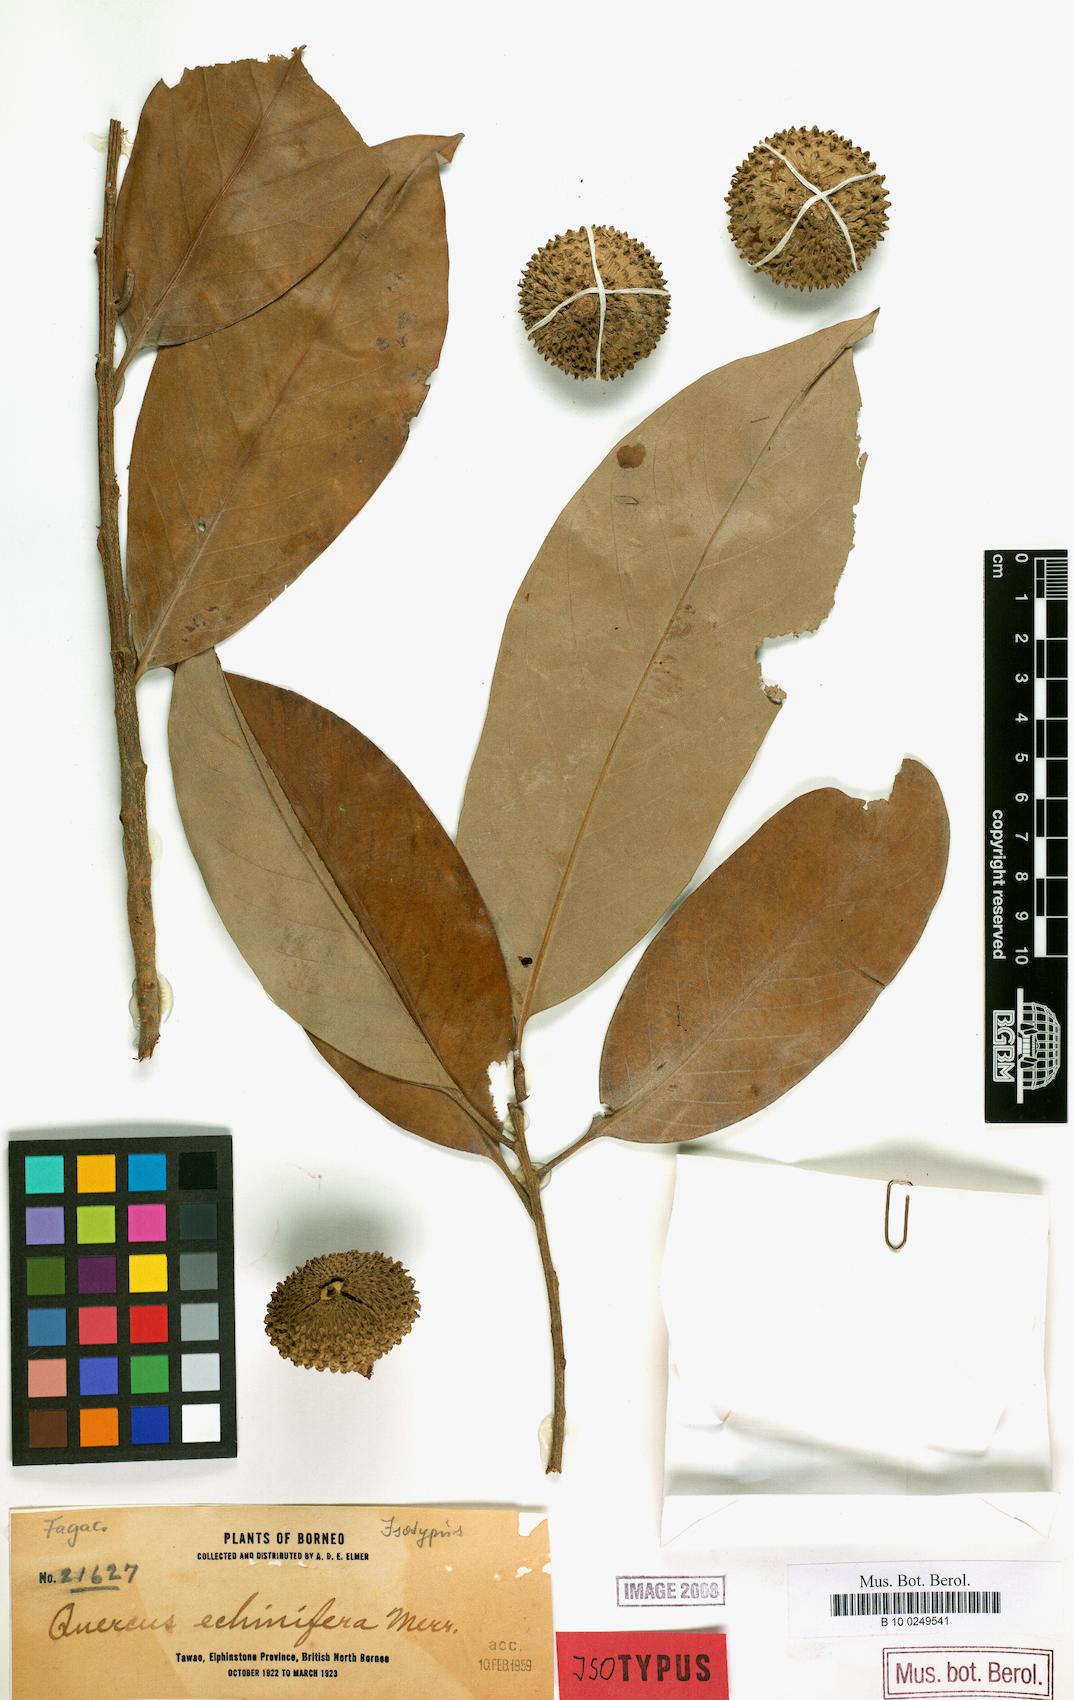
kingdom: Plantae
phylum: Tracheophyta
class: Magnoliopsida
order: Fagales
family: Fagaceae
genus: Lithocarpus
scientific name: Lithocarpus echinifer
